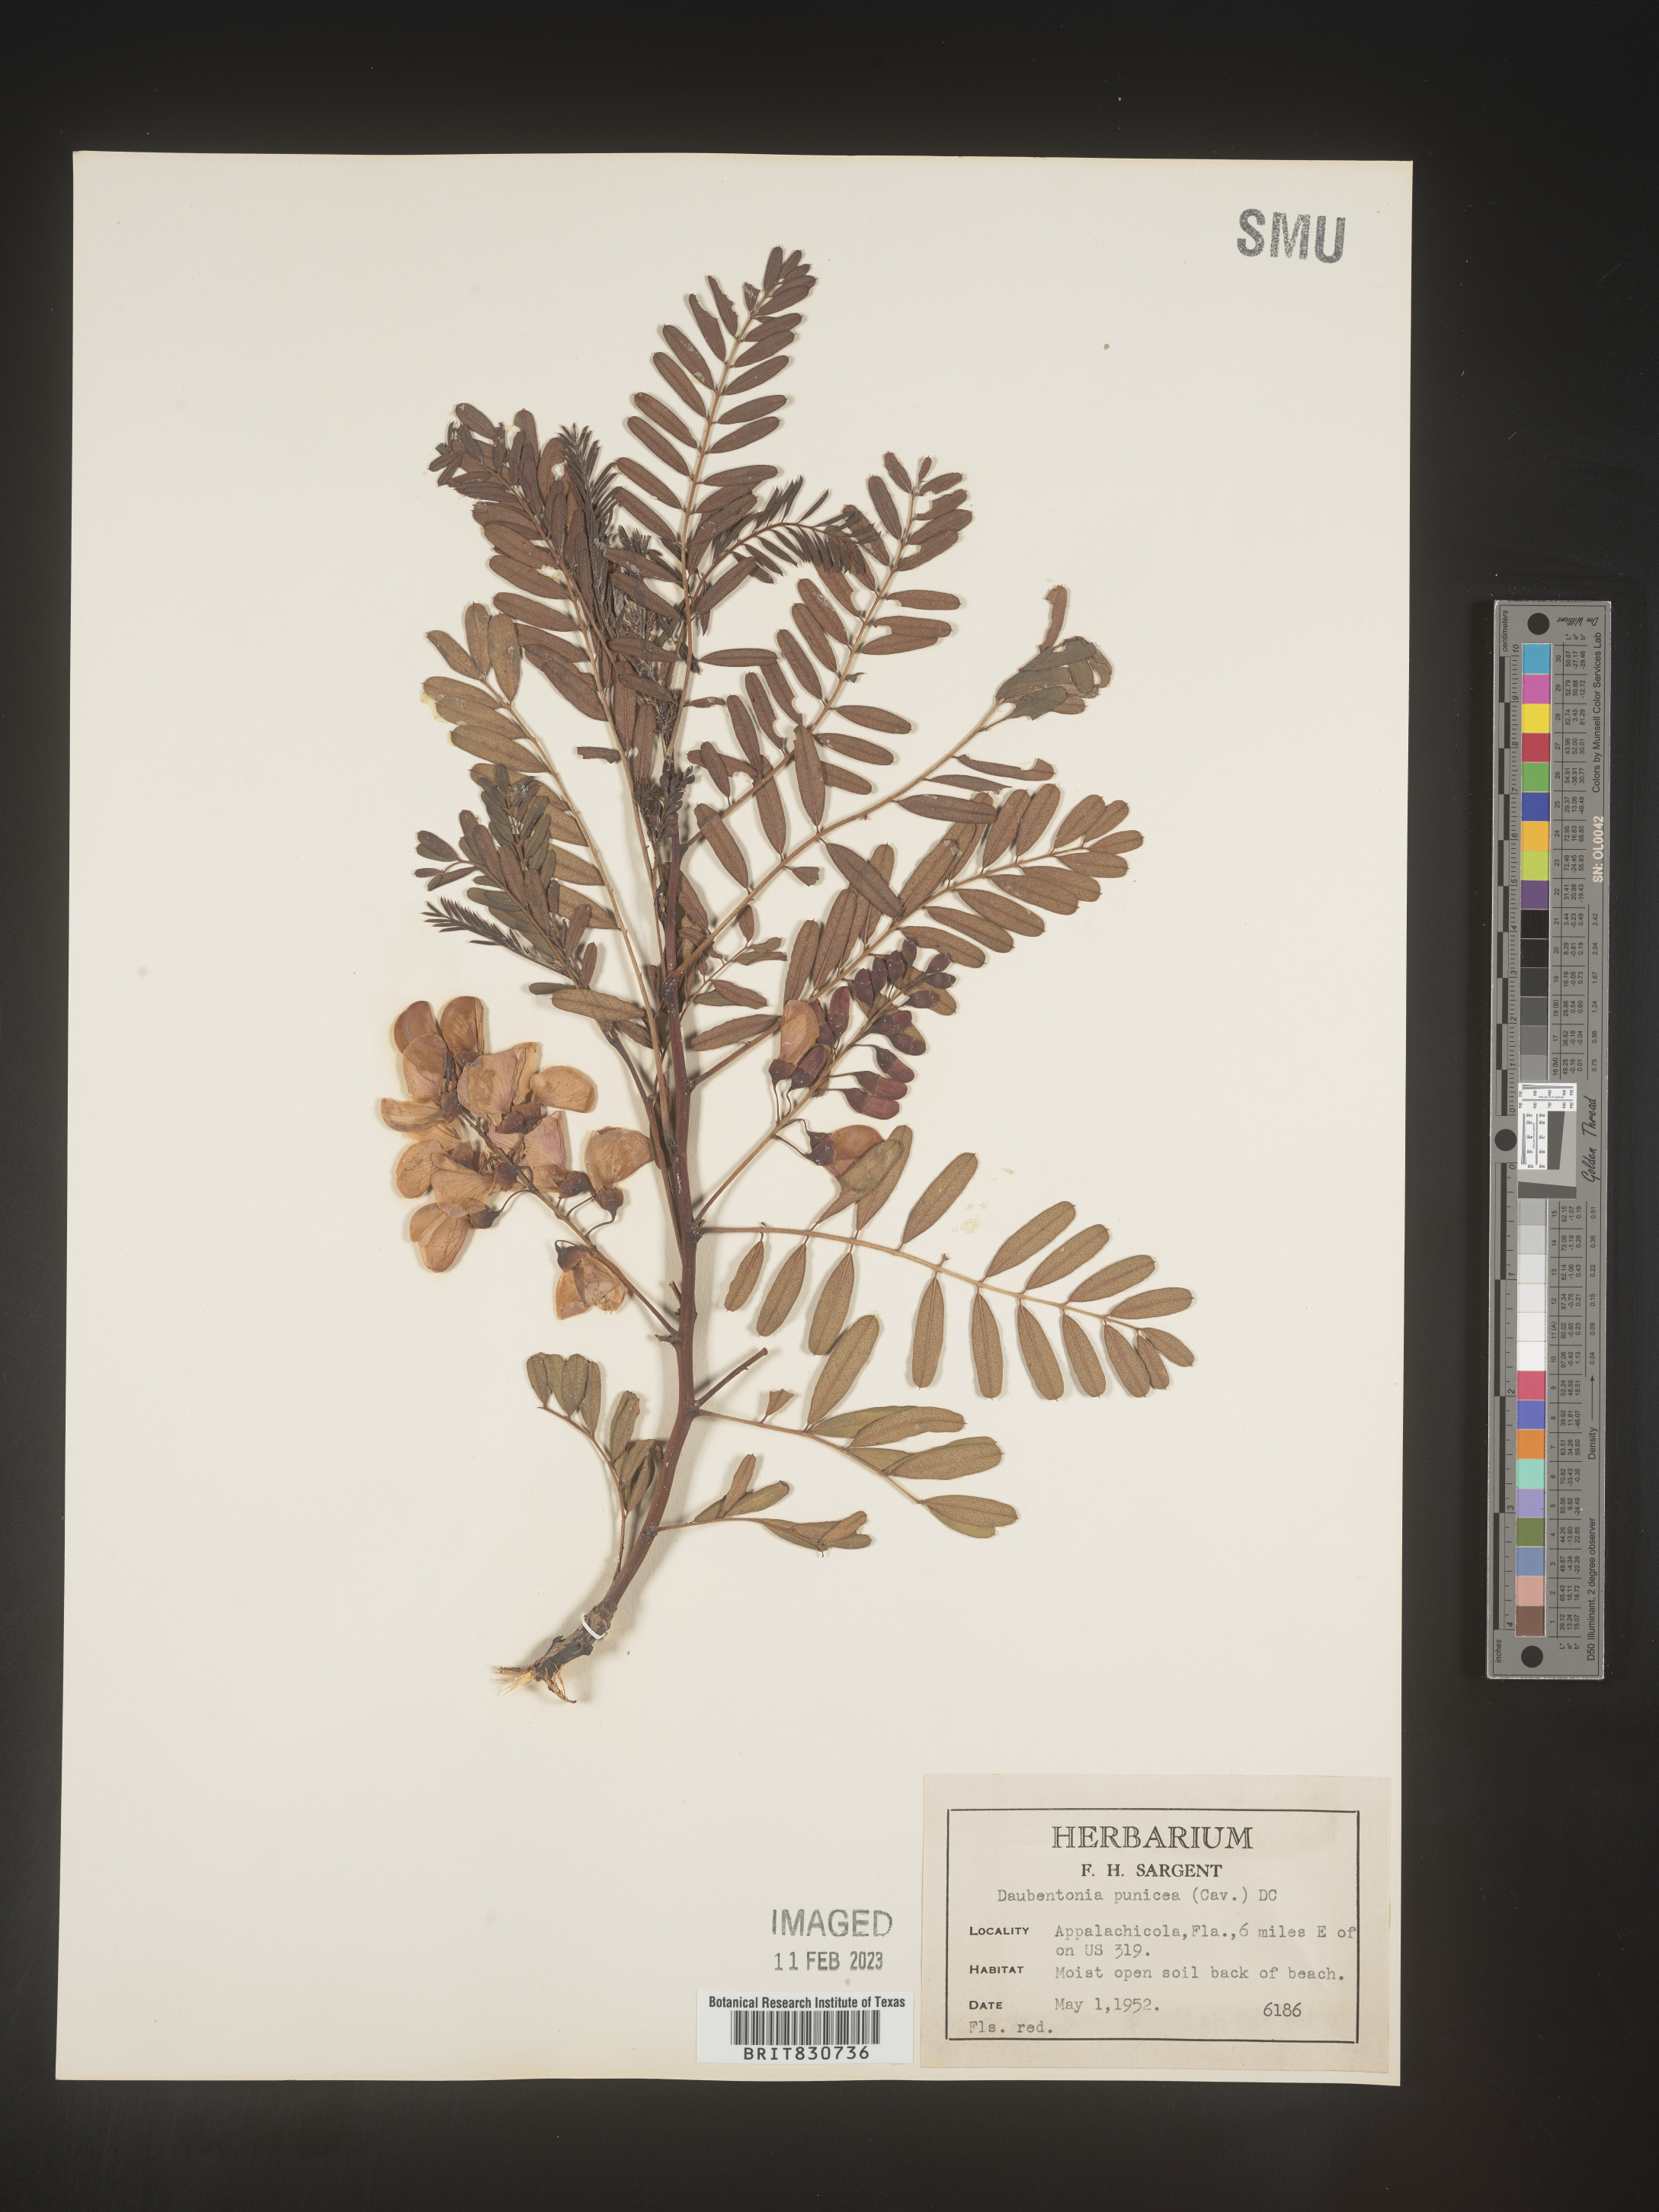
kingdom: Plantae
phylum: Tracheophyta
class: Magnoliopsida
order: Fabales
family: Fabaceae
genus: Sesbania
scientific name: Sesbania punicea
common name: Rattlebox
